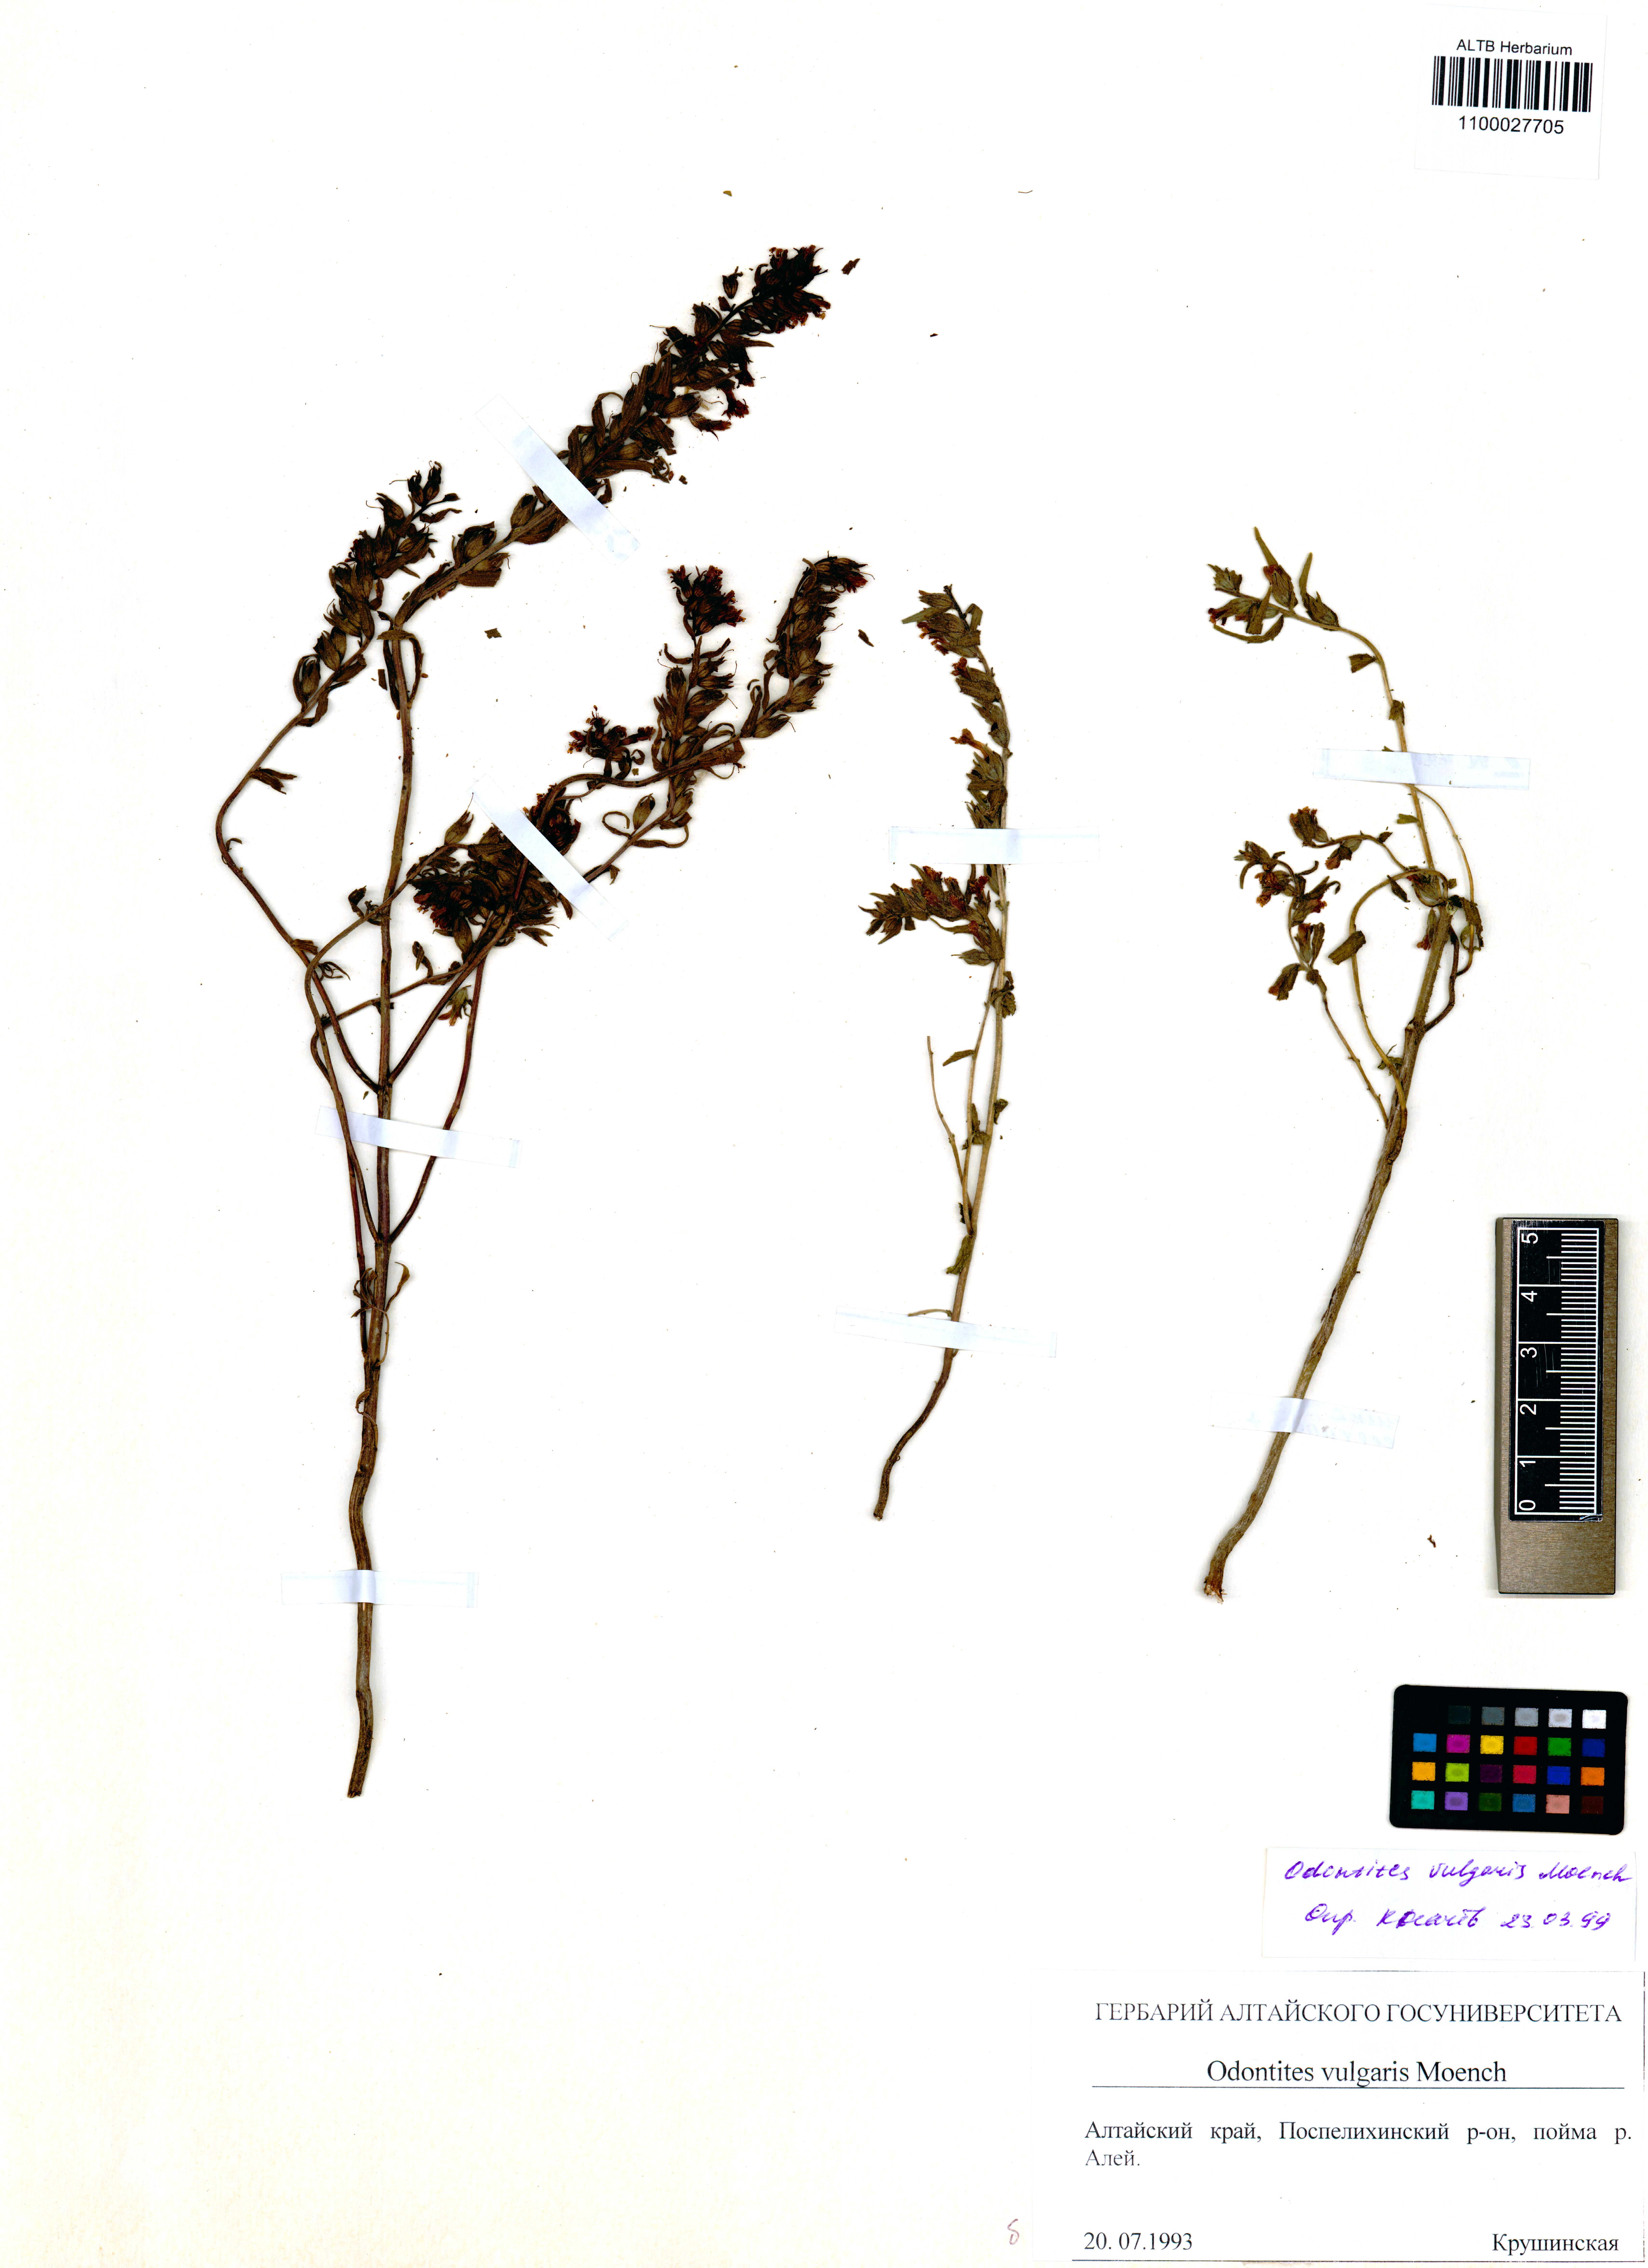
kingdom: Plantae
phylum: Tracheophyta
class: Magnoliopsida
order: Lamiales
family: Orobanchaceae
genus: Odontites
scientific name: Odontites vulgaris
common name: Broomrape
